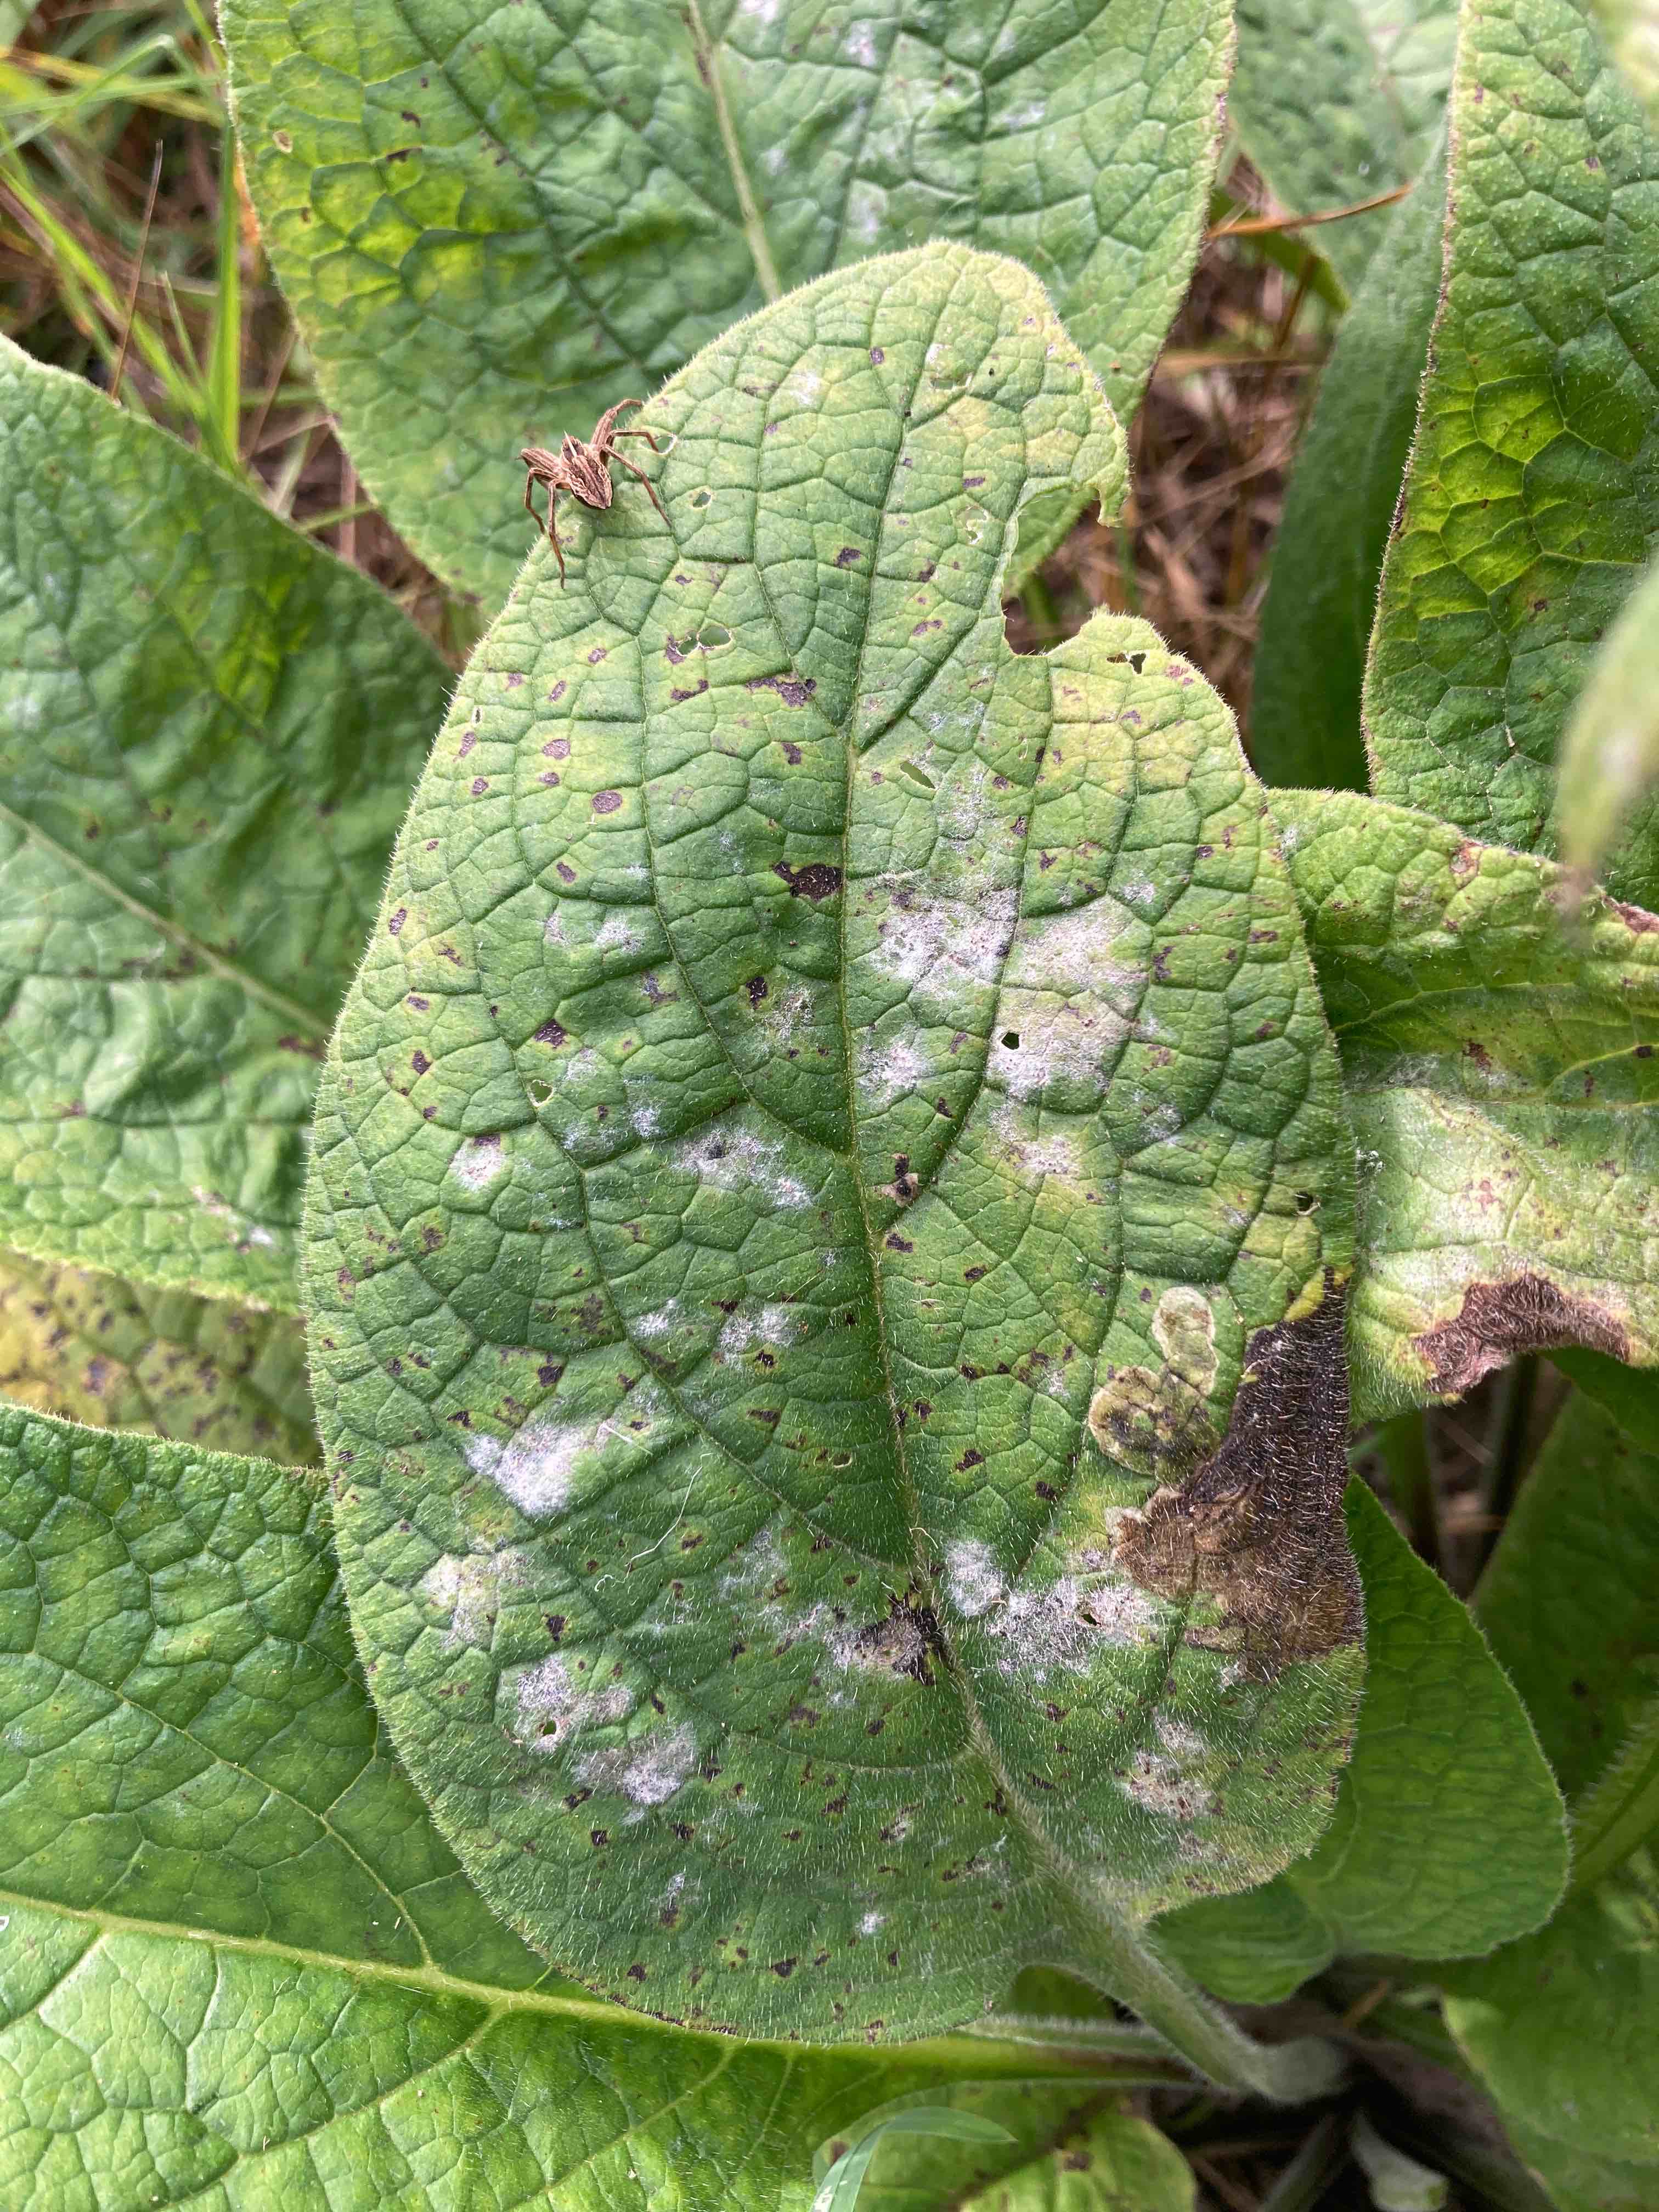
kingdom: Fungi
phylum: Ascomycota
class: Leotiomycetes
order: Helotiales
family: Erysiphaceae
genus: Golovinomyces
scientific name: Golovinomyces asperifoliorum
